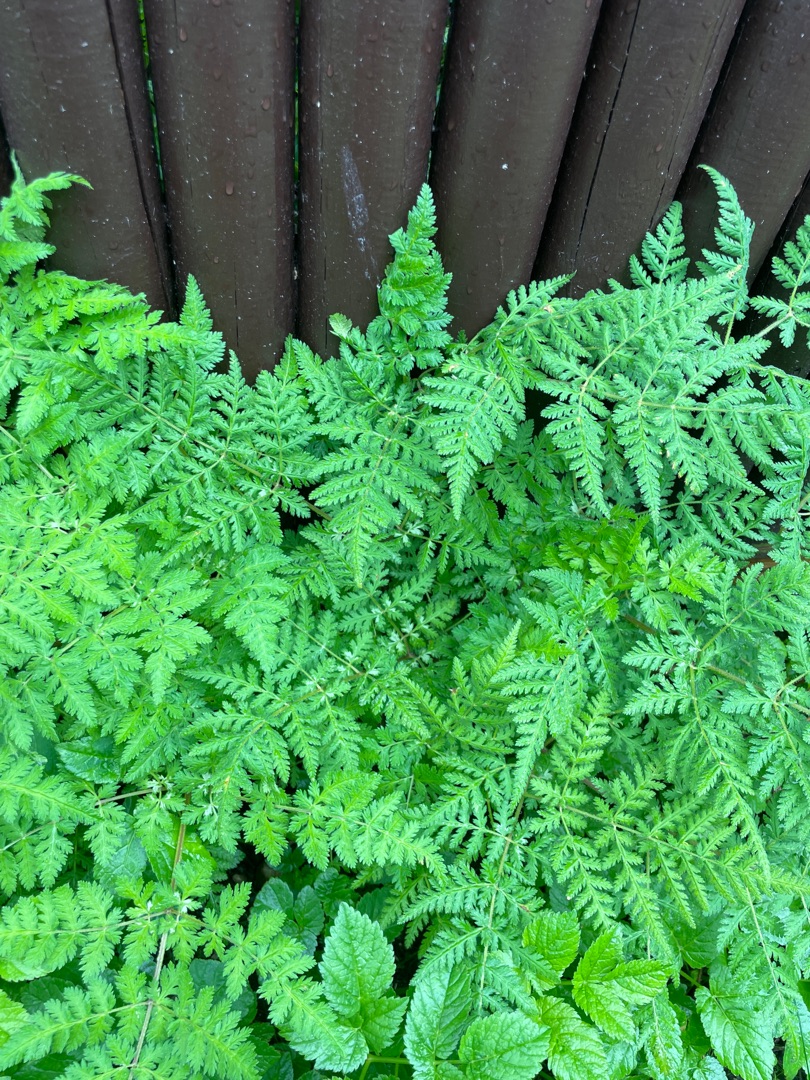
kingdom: Plantae
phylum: Tracheophyta
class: Magnoliopsida
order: Apiales
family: Apiaceae
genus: Myrrhis
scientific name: Myrrhis odorata
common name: Sødskærm
